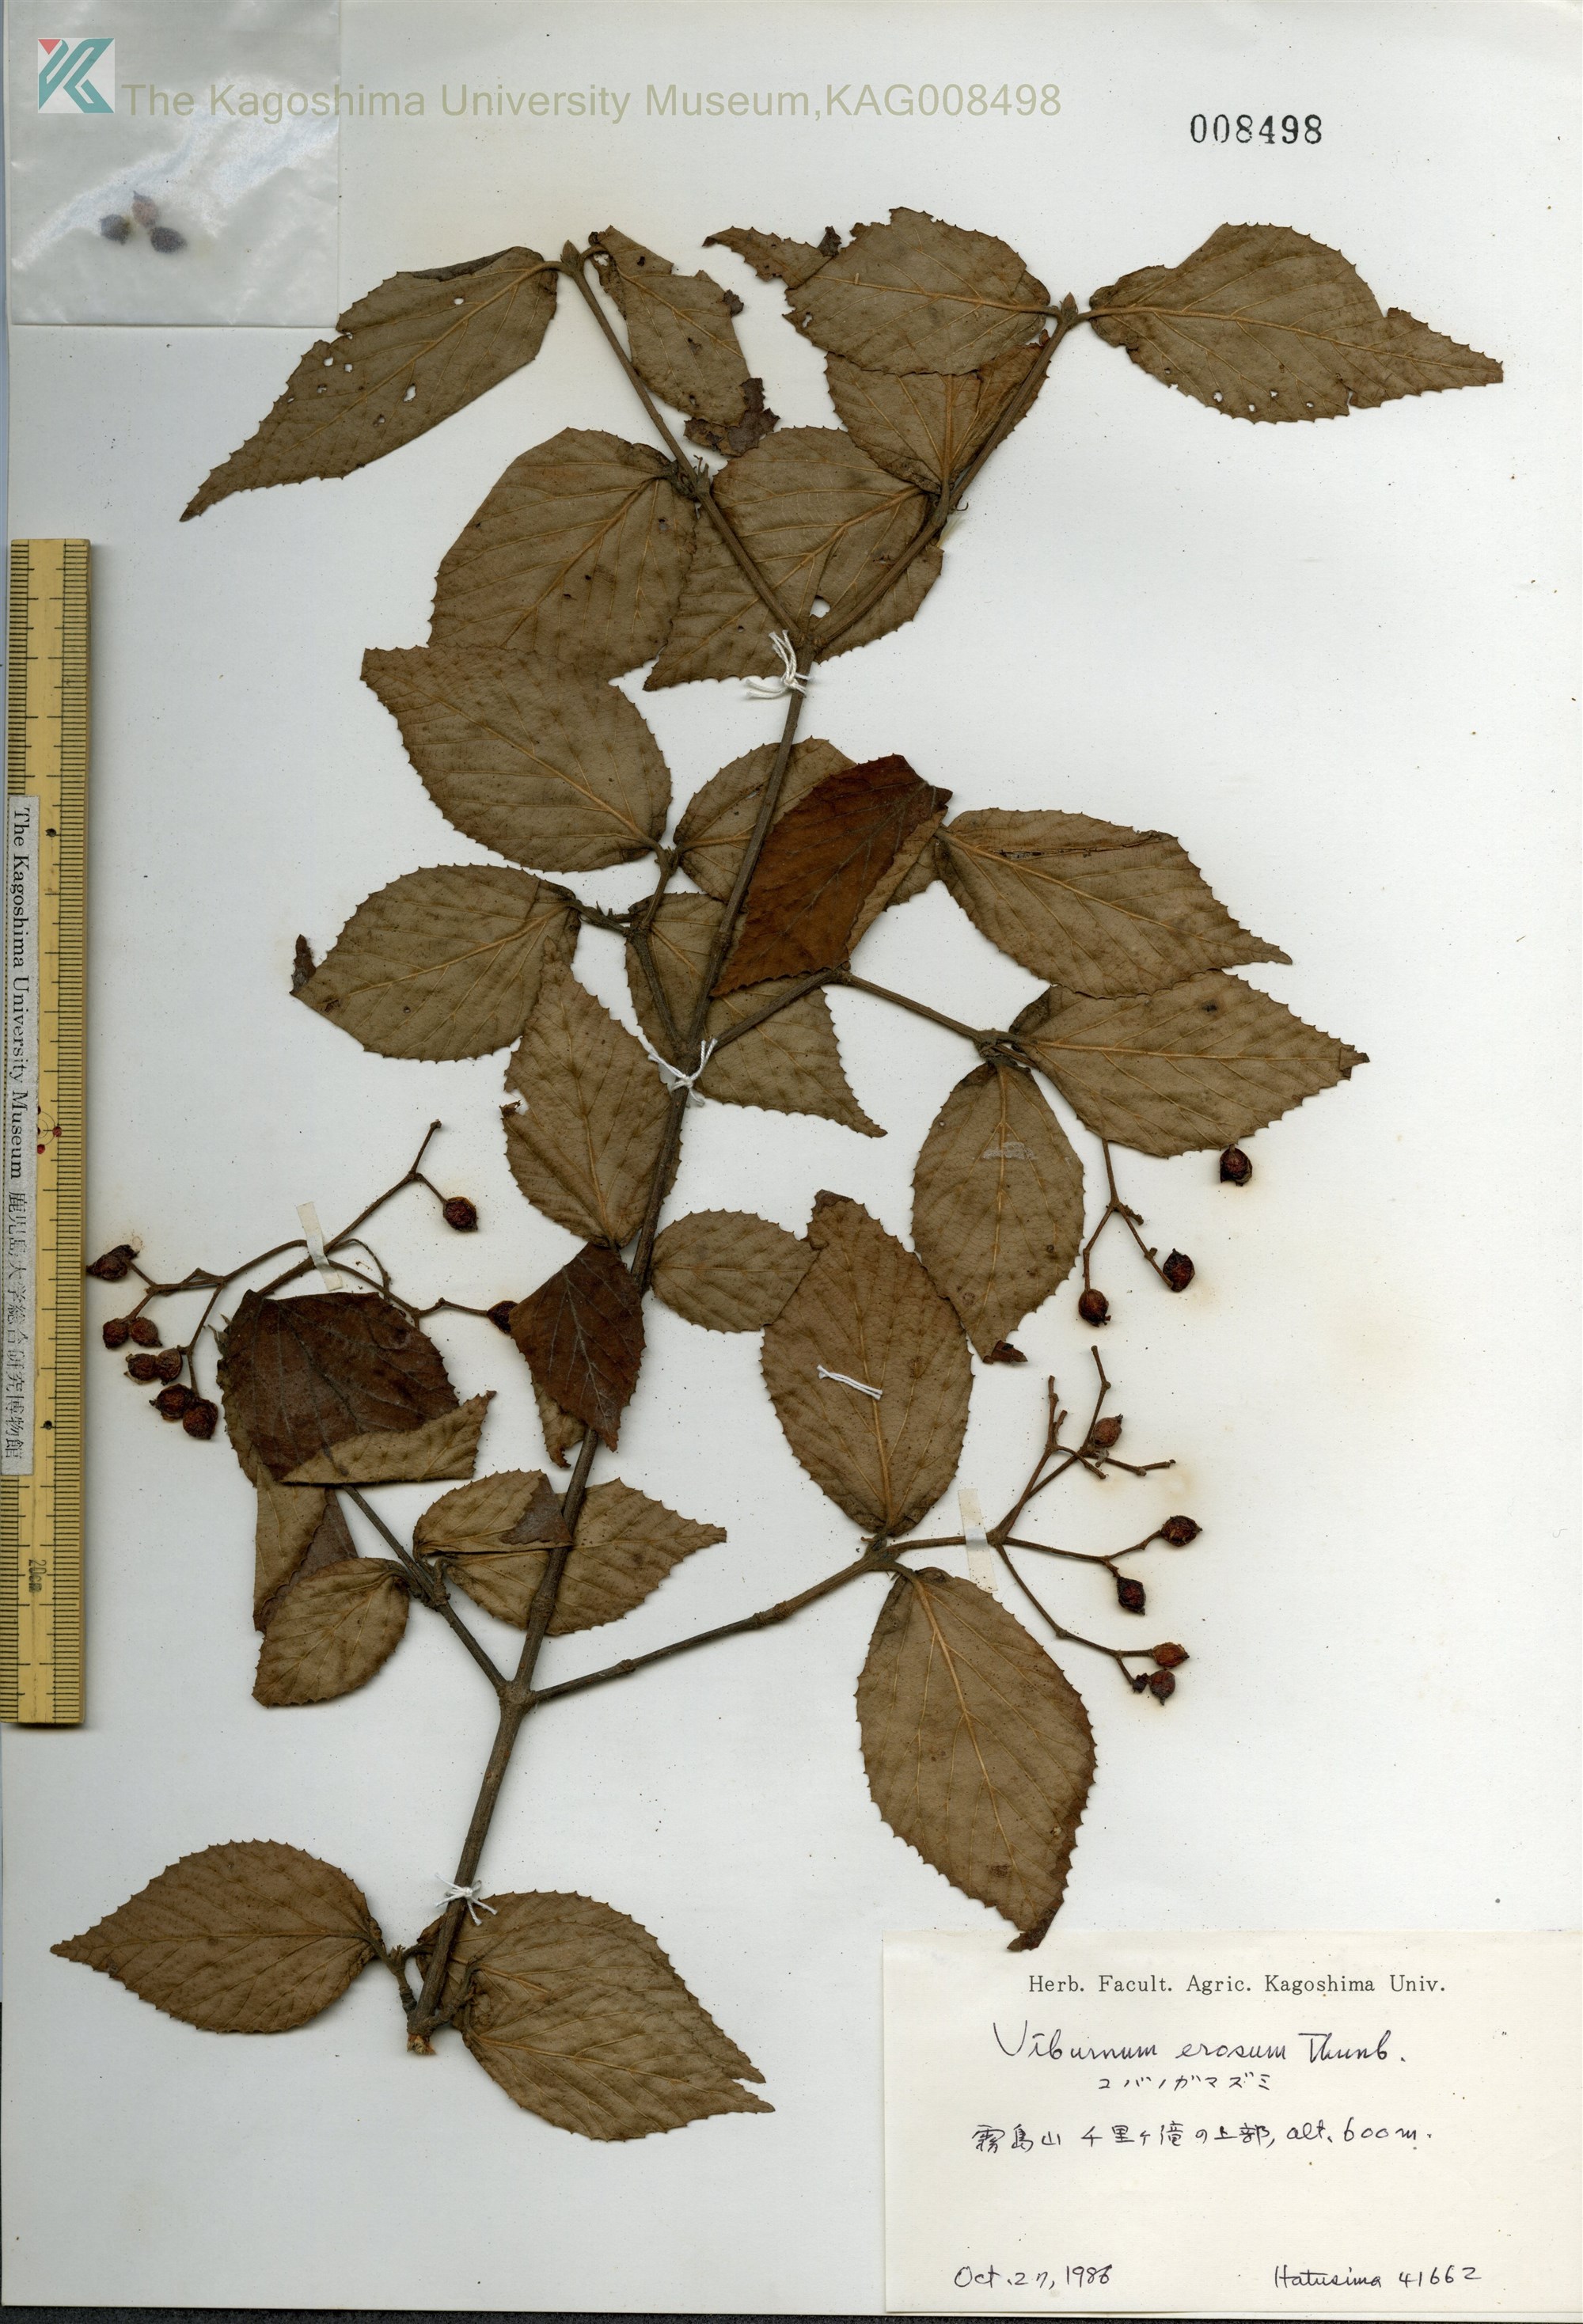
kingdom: Plantae
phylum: Tracheophyta
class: Magnoliopsida
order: Dipsacales
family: Viburnaceae
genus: Viburnum
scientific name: Viburnum erosum
